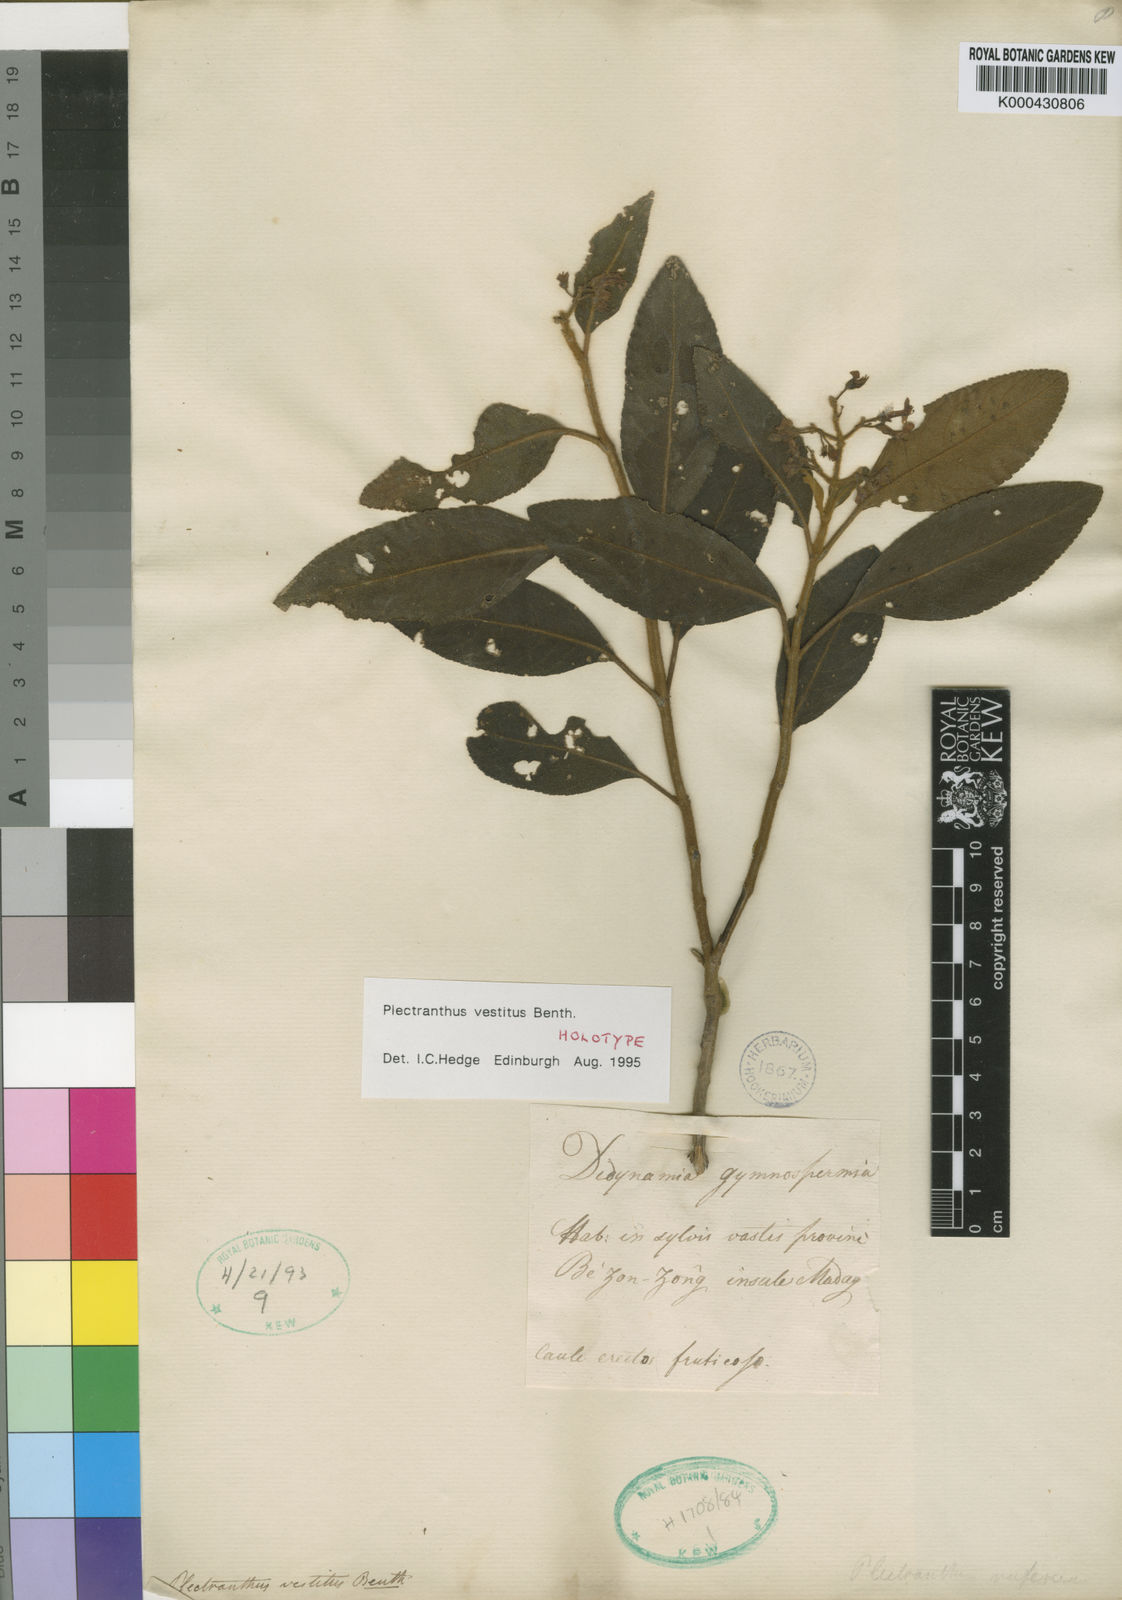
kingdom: Plantae
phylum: Tracheophyta
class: Magnoliopsida
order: Lamiales
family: Lamiaceae
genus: Plectranthus
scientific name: Plectranthus vestitus
